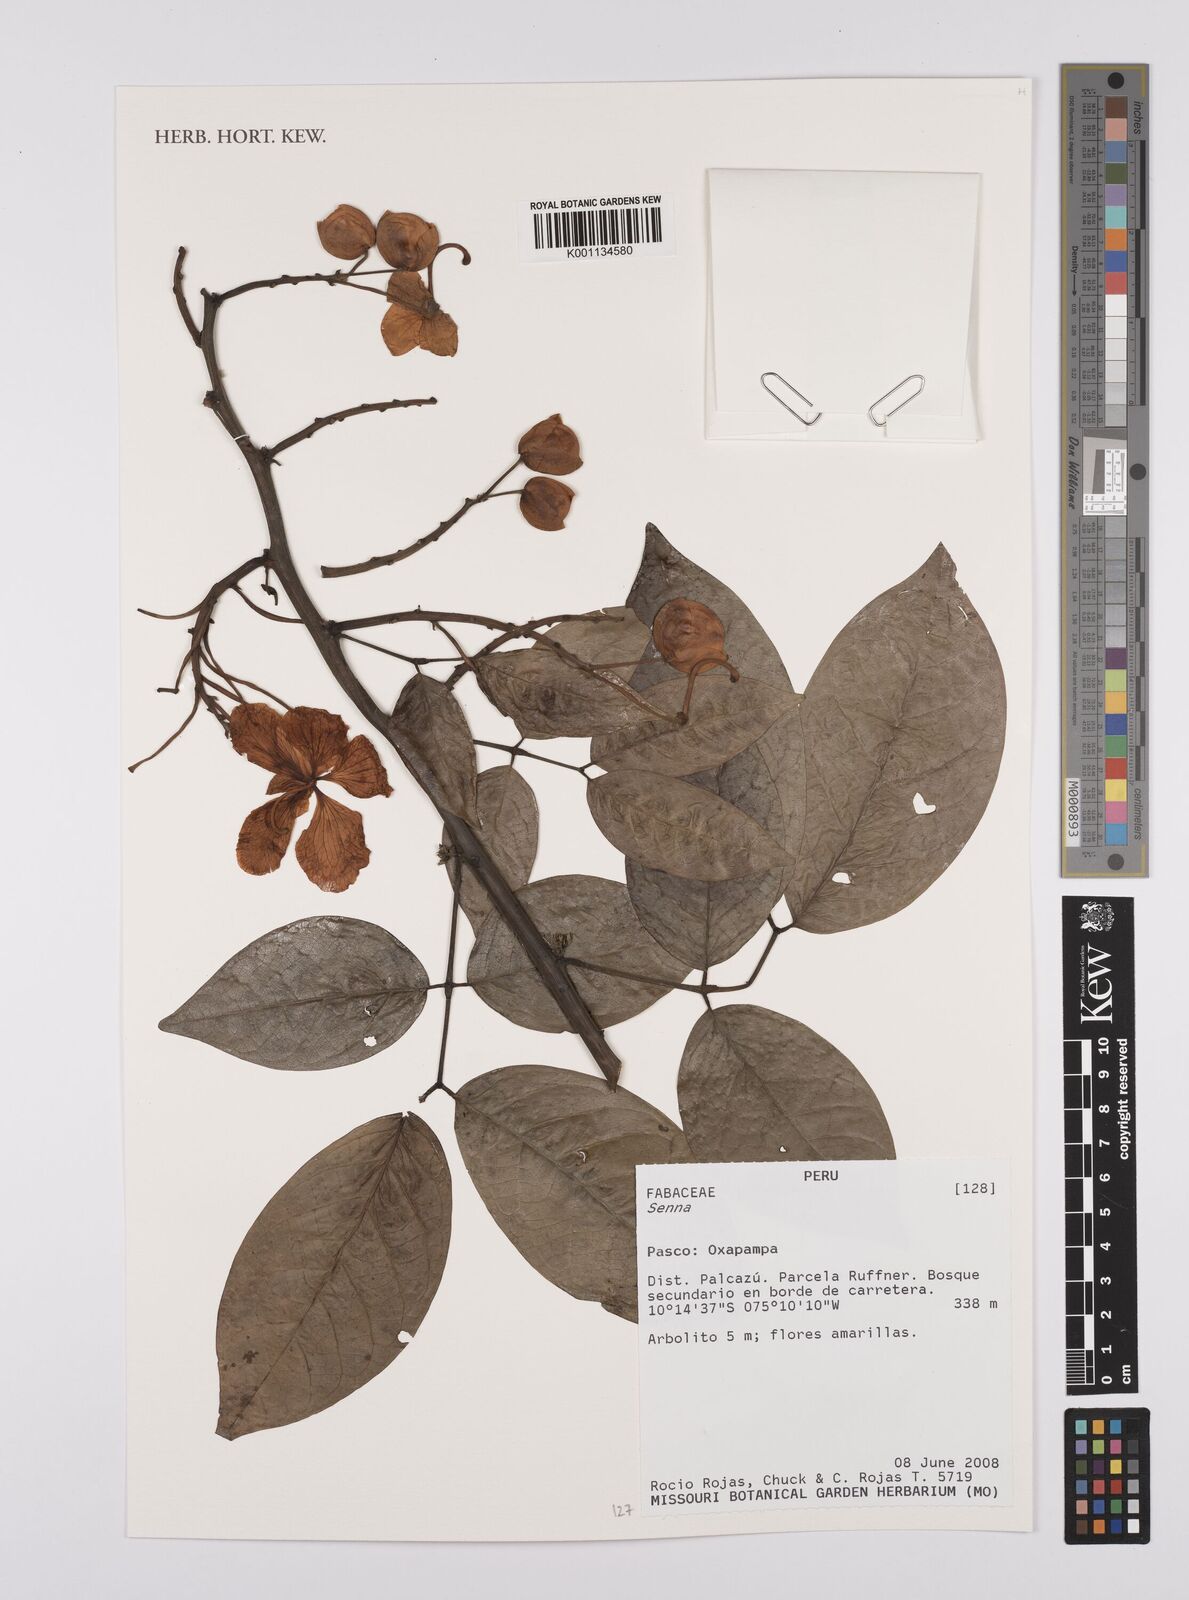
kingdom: Plantae
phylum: Tracheophyta
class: Magnoliopsida
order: Fabales
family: Fabaceae
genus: Senna
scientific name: Senna
